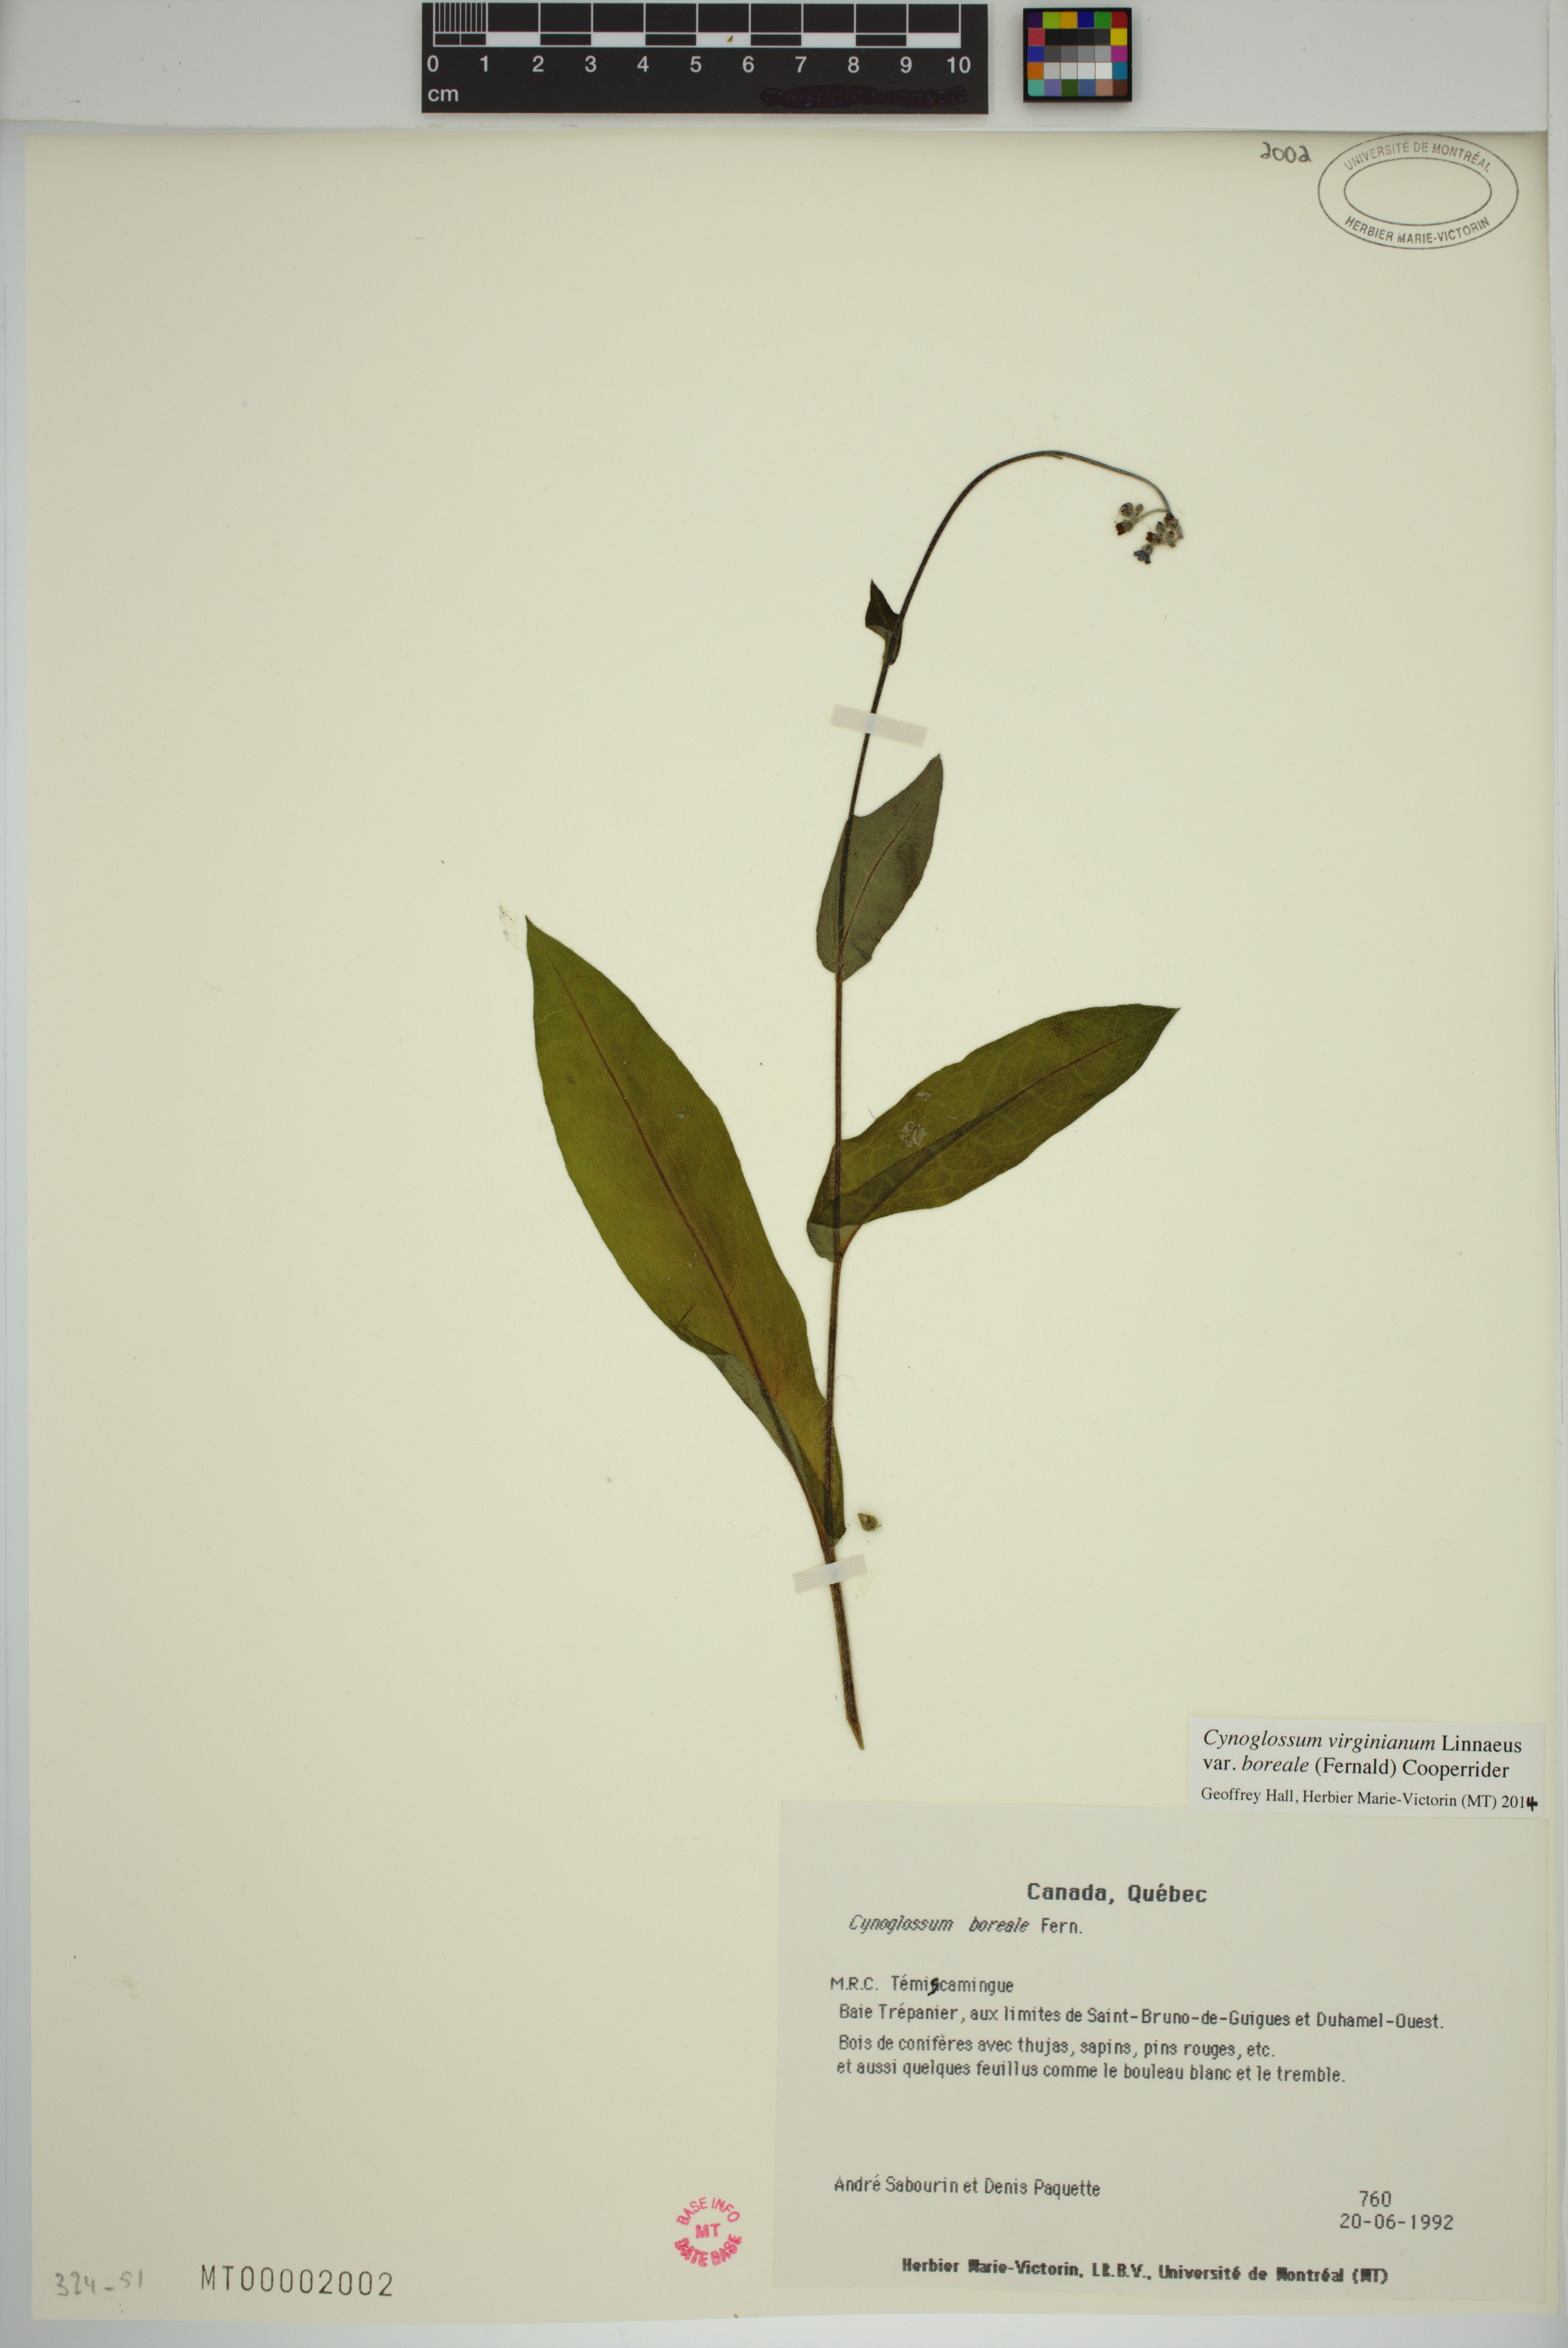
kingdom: Plantae
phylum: Tracheophyta
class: Magnoliopsida
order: Boraginales
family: Boraginaceae
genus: Andersonglossum
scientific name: Andersonglossum boreale
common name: Northern hound's-tongue
